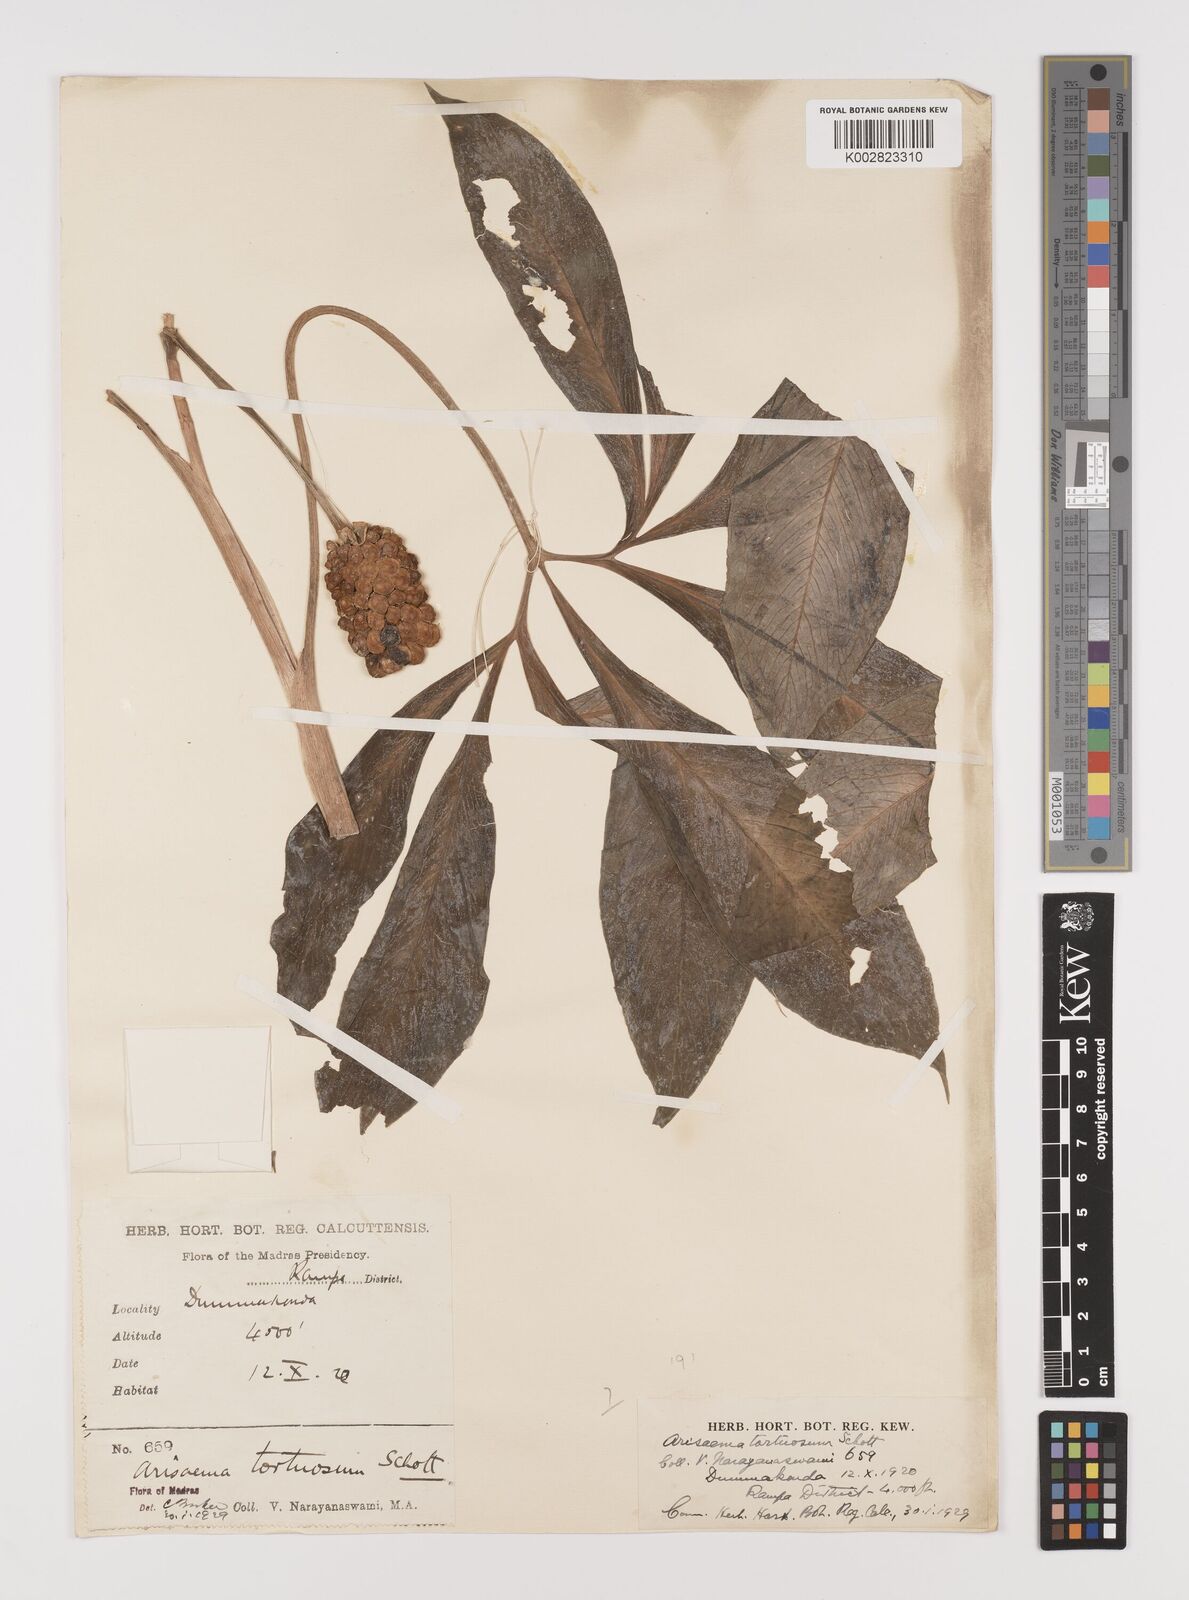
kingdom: Plantae
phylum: Tracheophyta
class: Liliopsida
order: Alismatales
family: Araceae
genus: Arisaema
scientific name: Arisaema tortuosum
